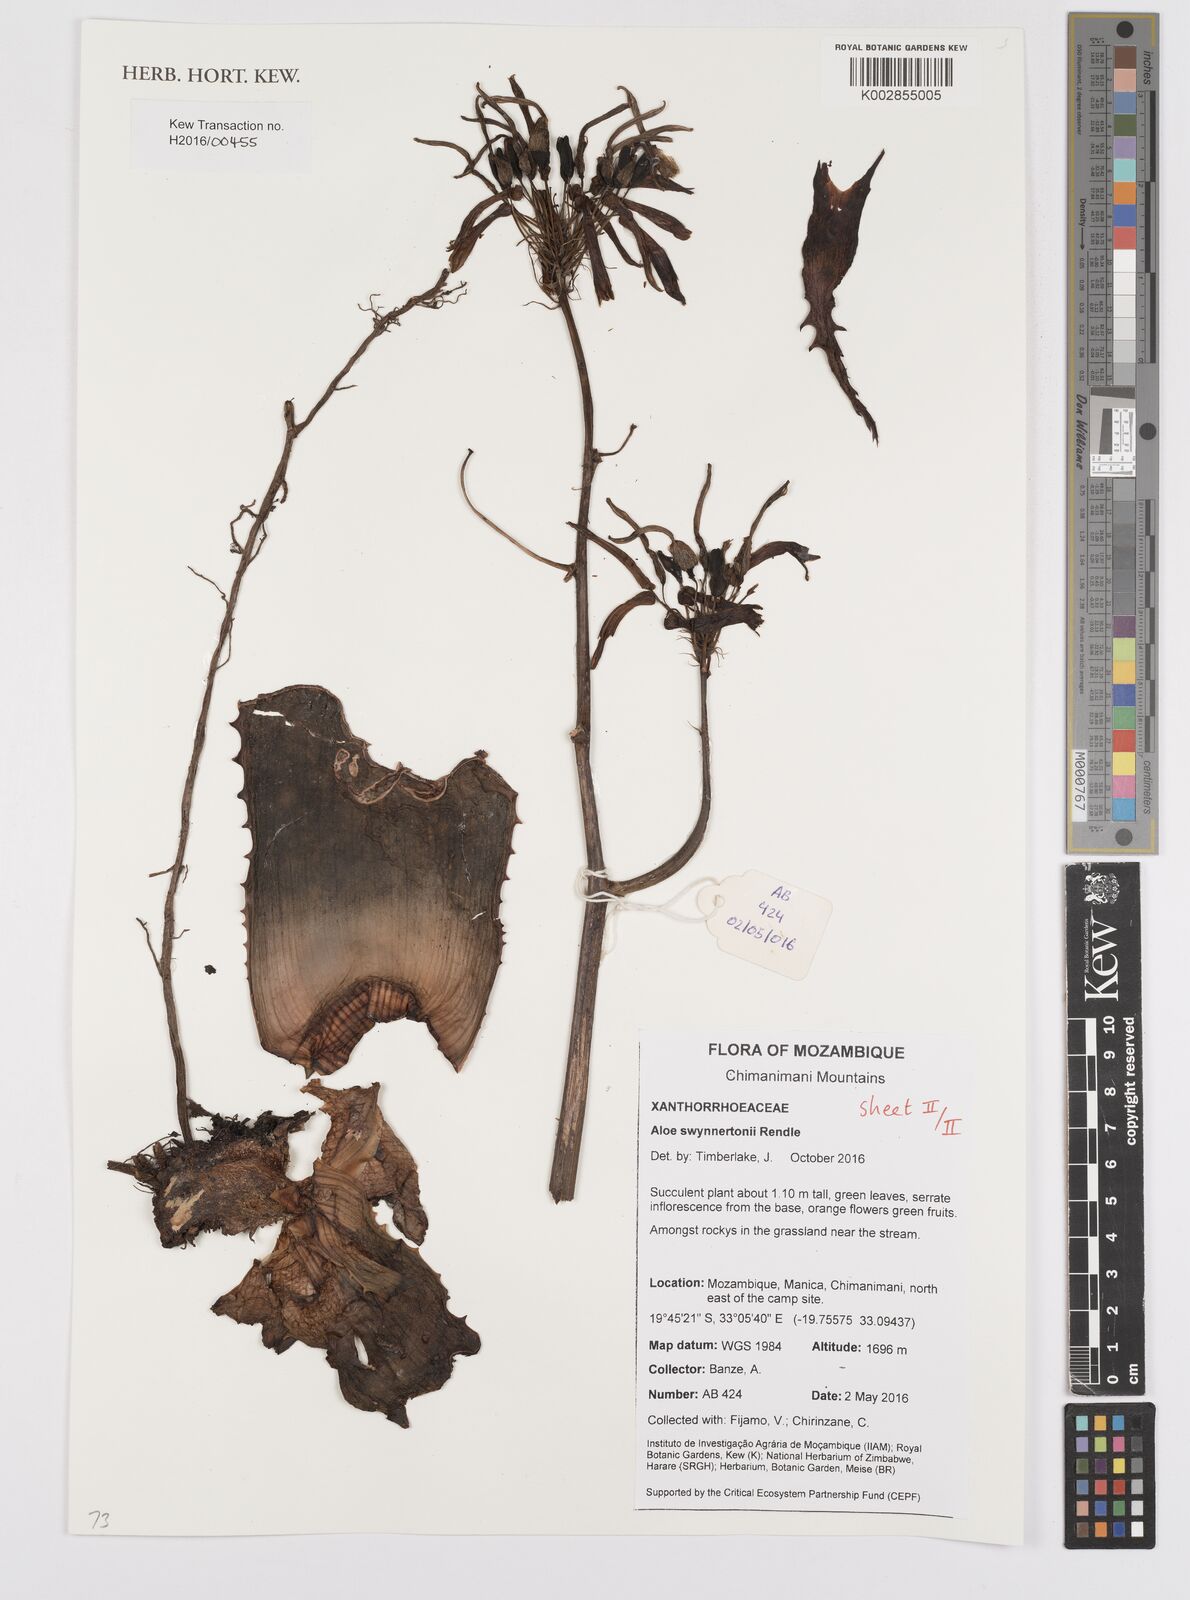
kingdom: Plantae
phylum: Tracheophyta
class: Liliopsida
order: Asparagales
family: Asphodelaceae
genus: Aloe
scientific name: Aloe swynnertonii
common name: Swynnerton's aloe
